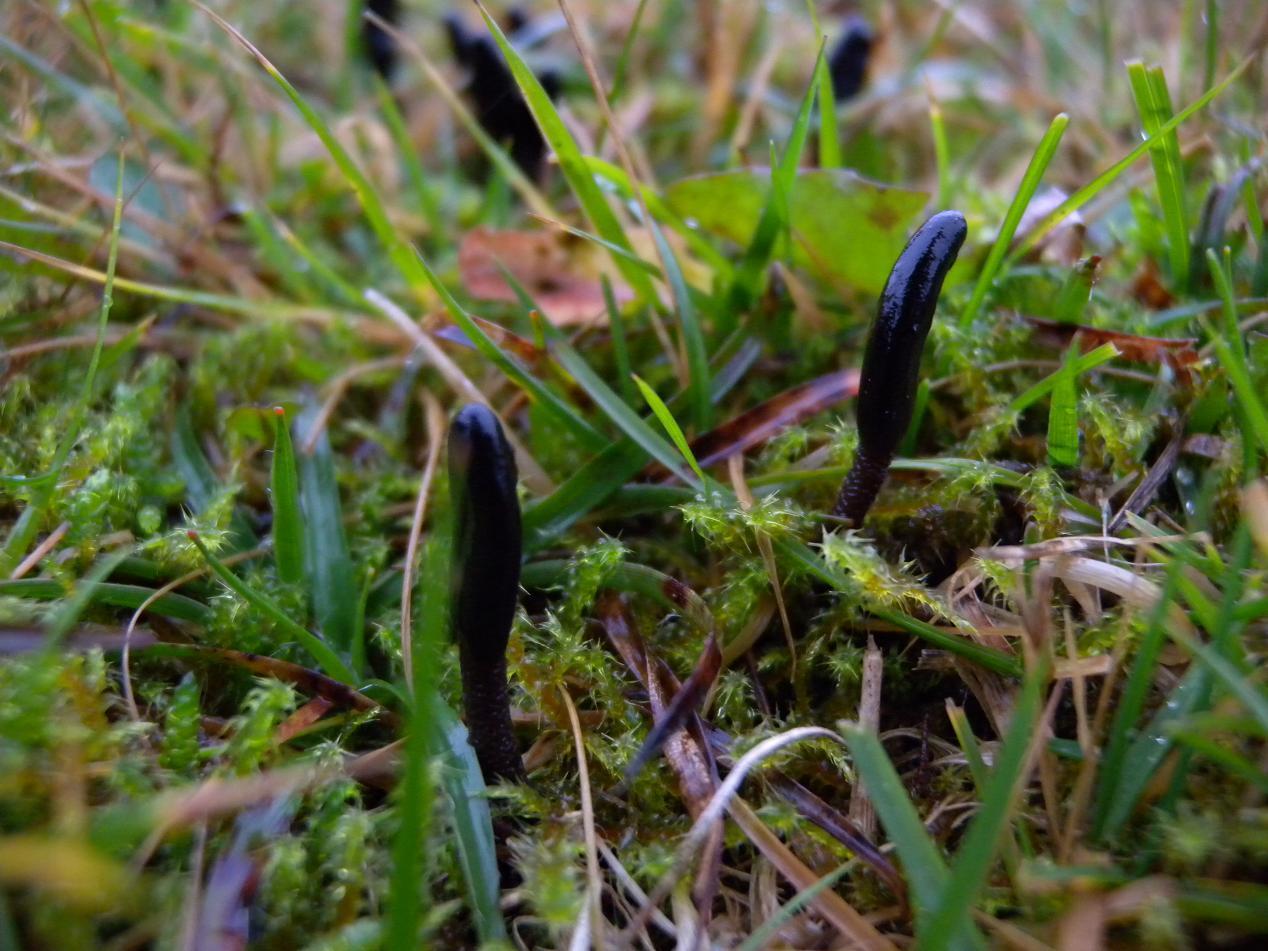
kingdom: Fungi
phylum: Ascomycota
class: Geoglossomycetes
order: Geoglossales
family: Geoglossaceae
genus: Geoglossum
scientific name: Geoglossum fallax
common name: småskællet jordtunge
